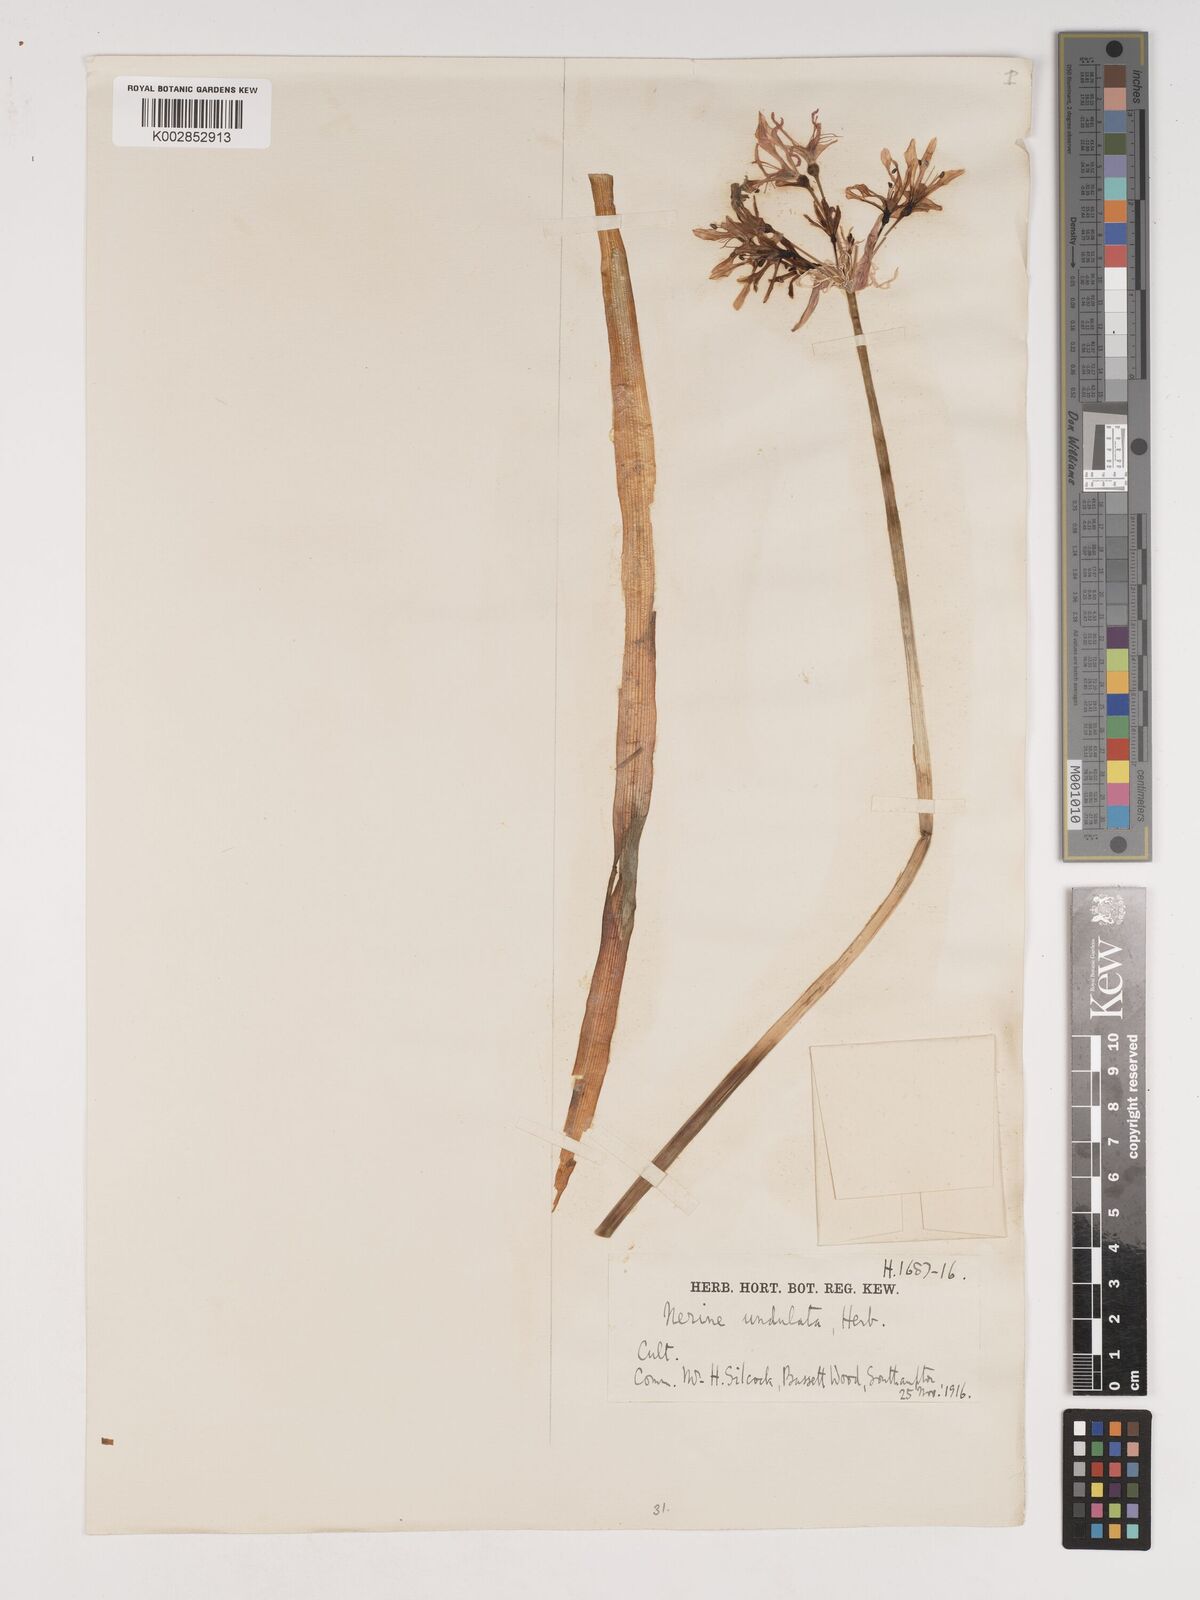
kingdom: Plantae
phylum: Tracheophyta
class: Liliopsida
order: Asparagales
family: Amaryllidaceae
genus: Nerine
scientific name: Nerine undulata
